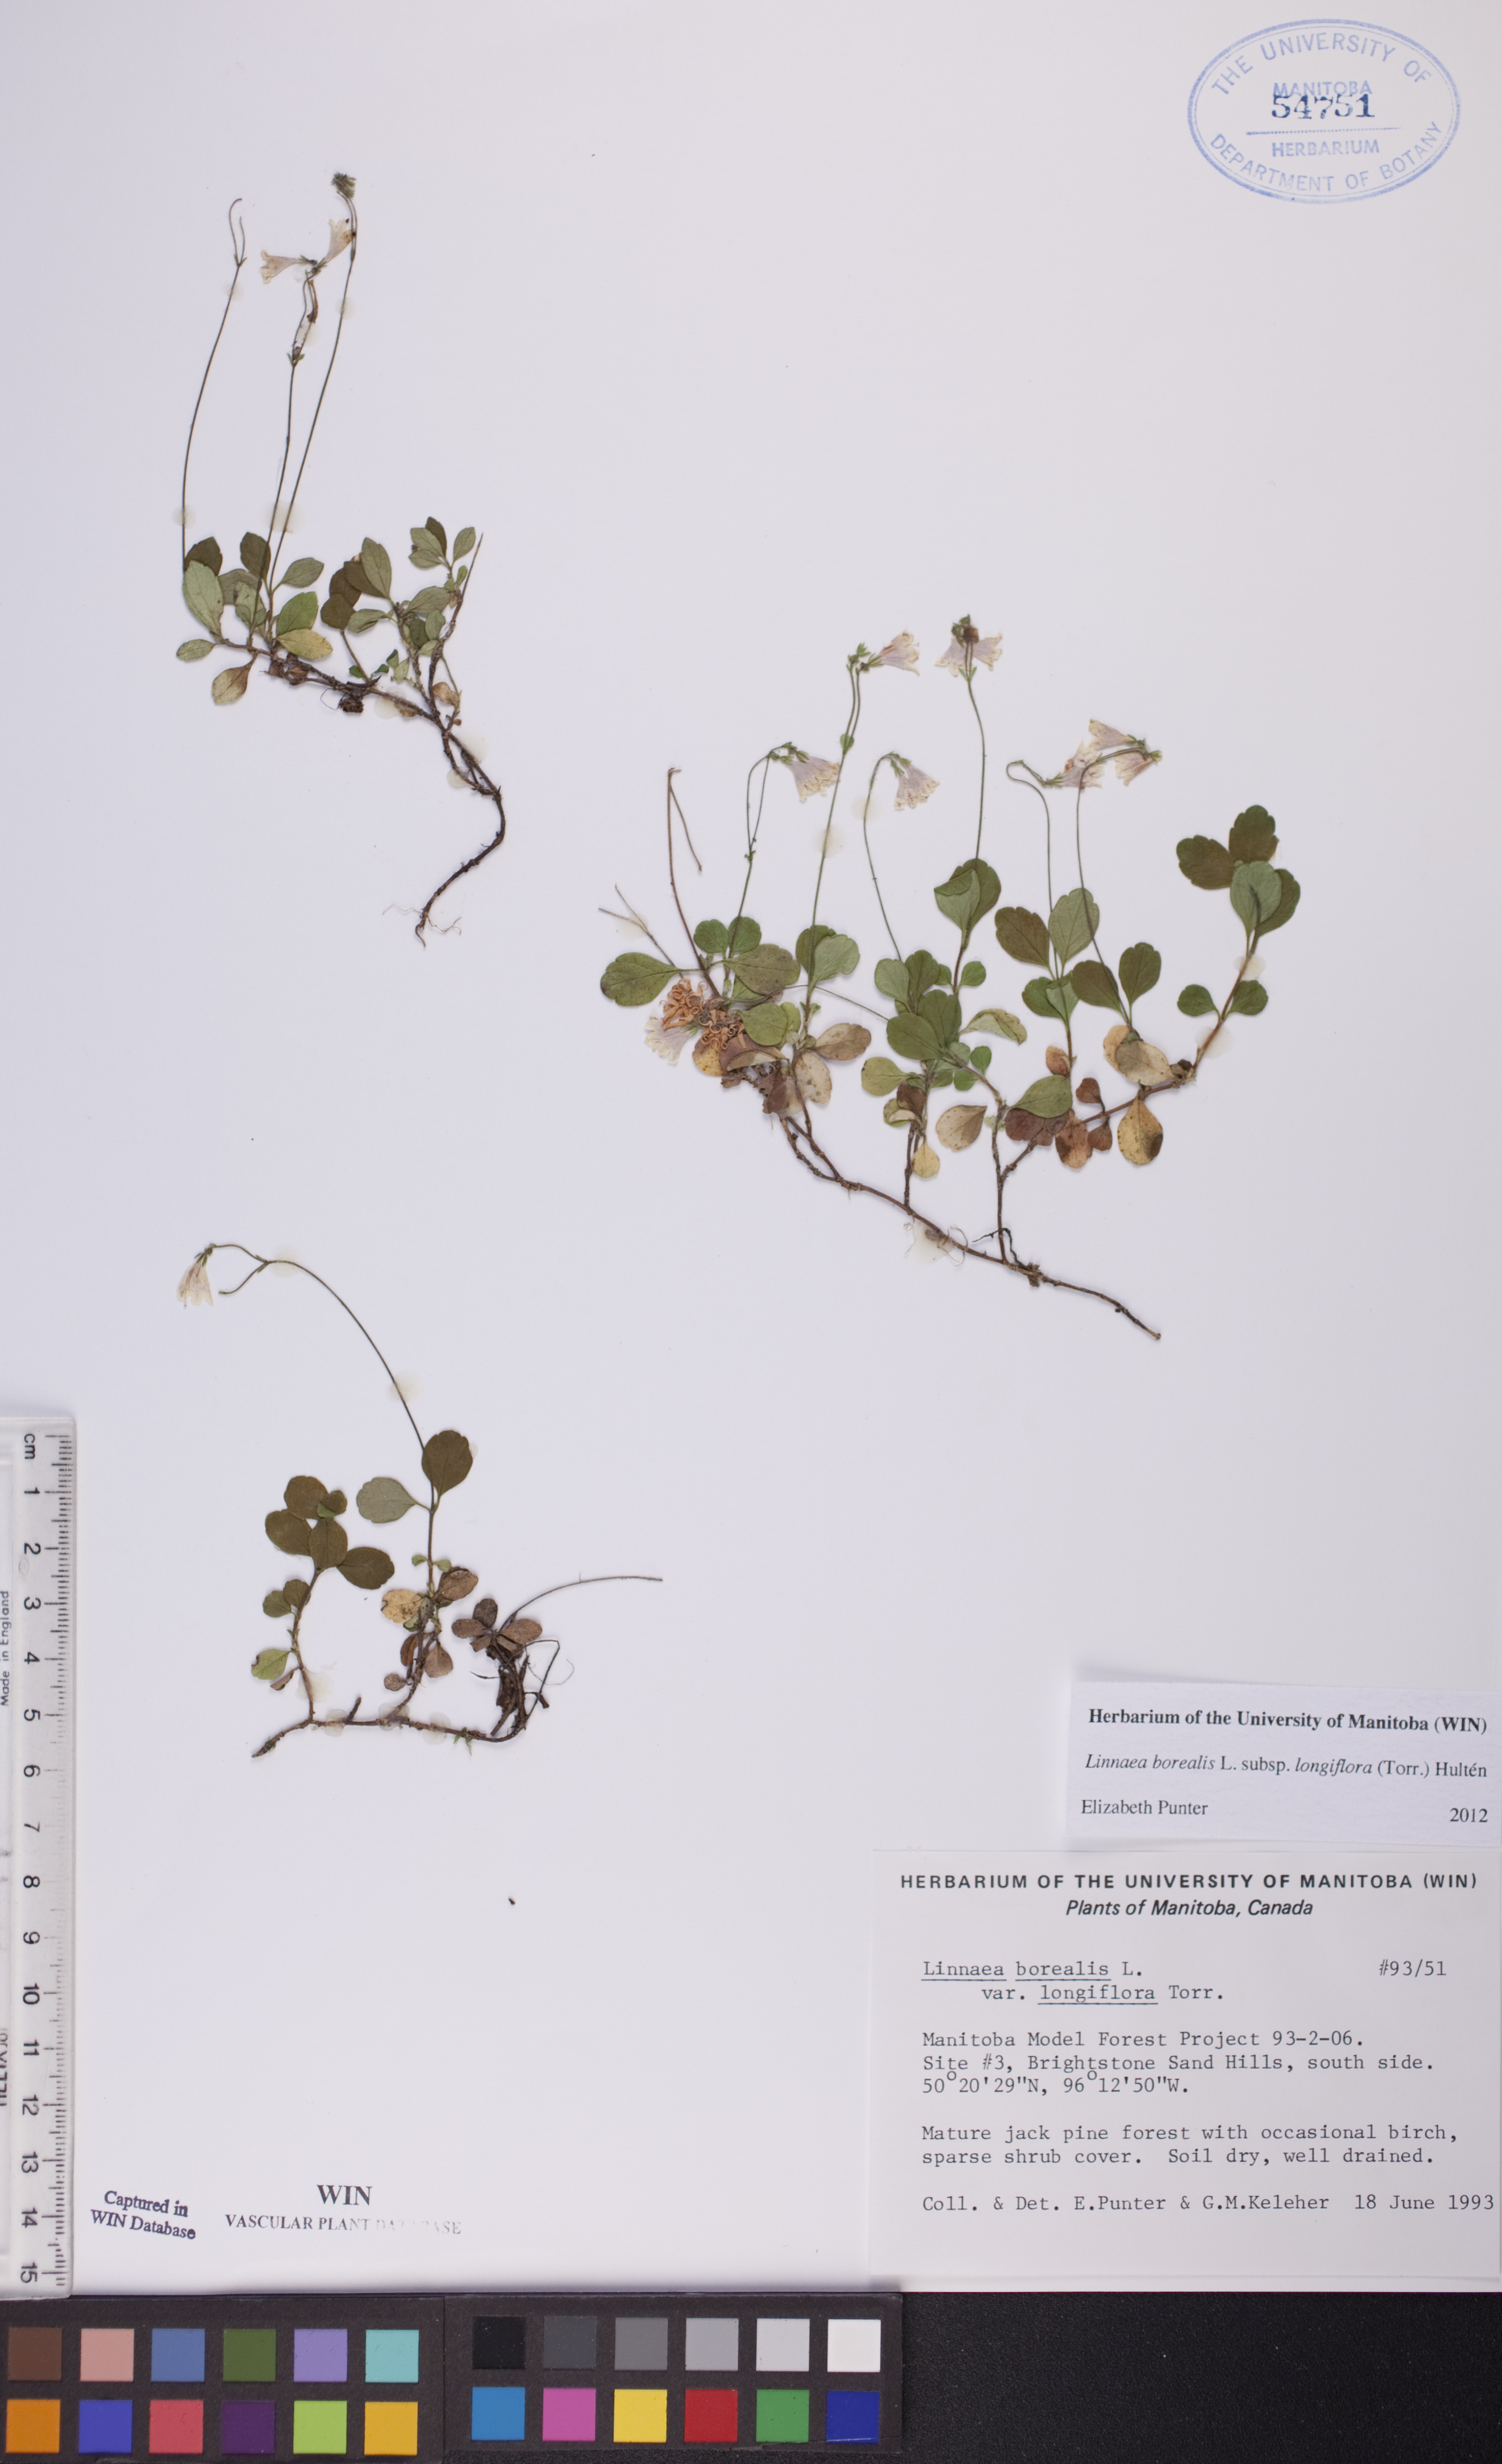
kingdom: Plantae
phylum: Tracheophyta
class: Magnoliopsida
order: Dipsacales
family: Caprifoliaceae
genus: Linnaea
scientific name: Linnaea borealis
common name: Twinflower
